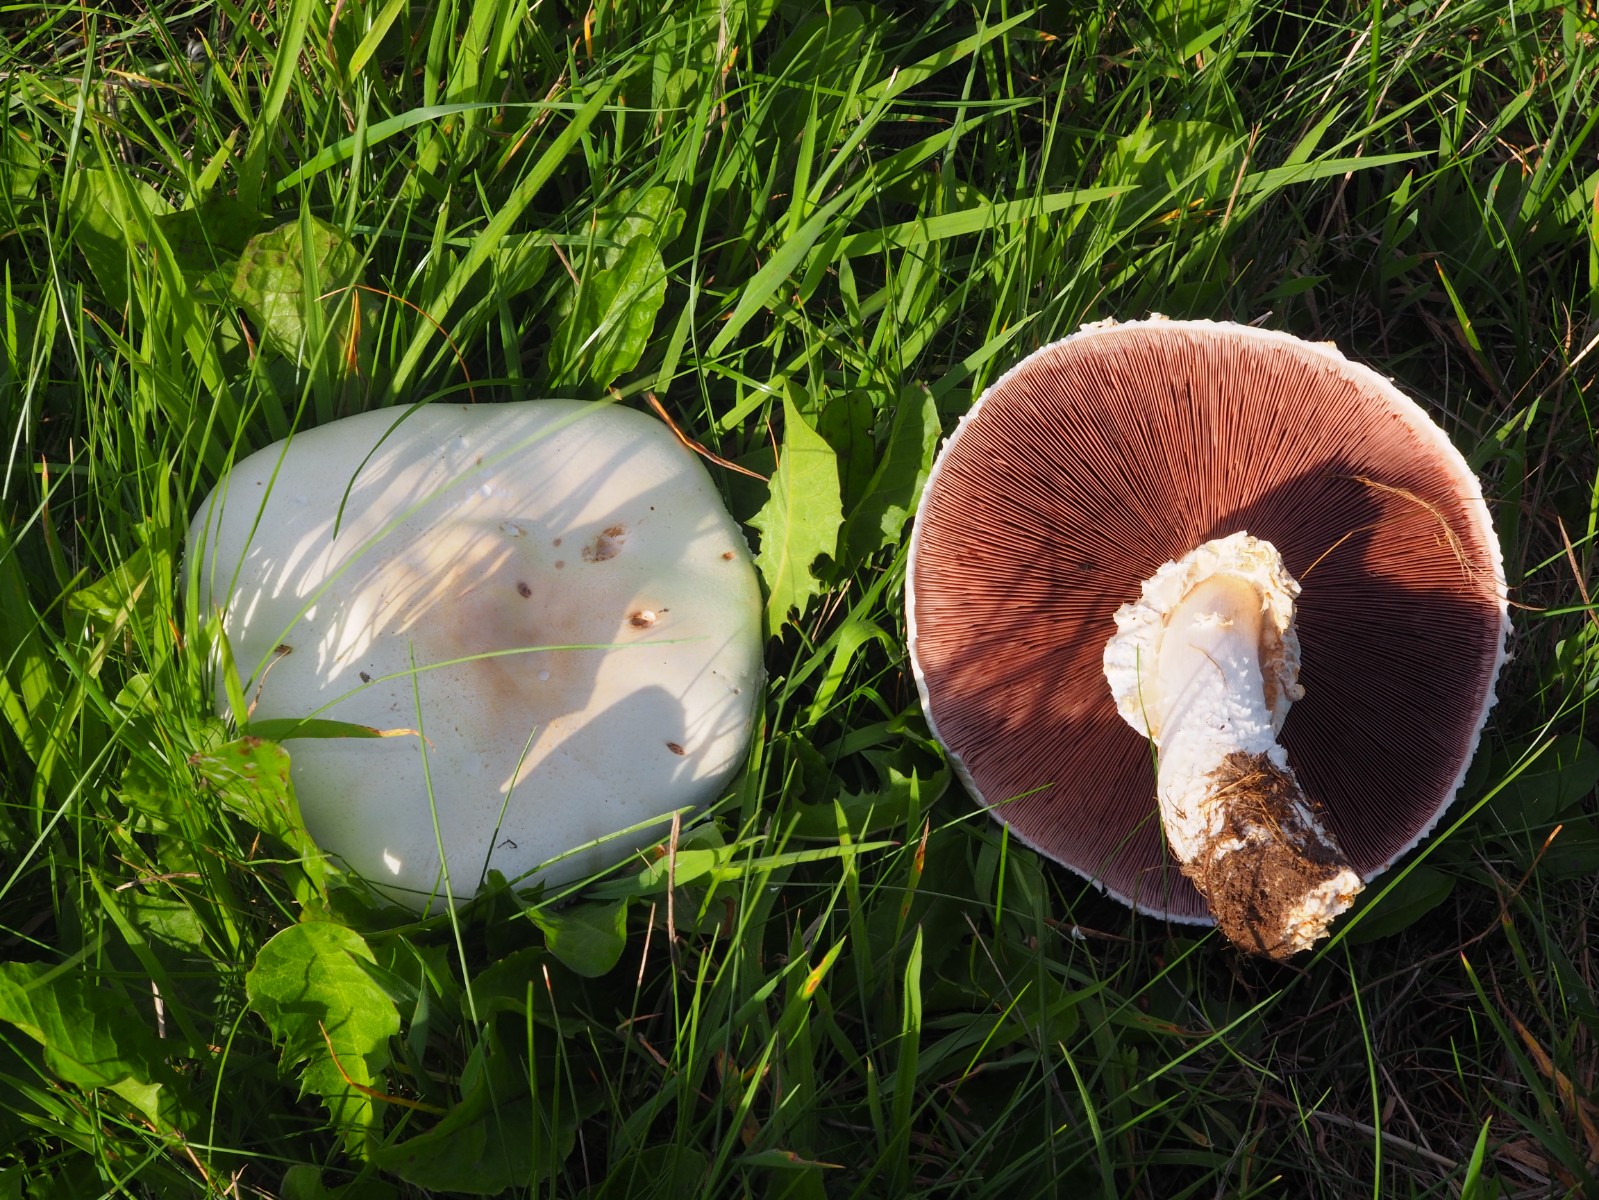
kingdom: Fungi
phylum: Basidiomycota
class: Agaricomycetes
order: Agaricales
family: Agaricaceae
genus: Agaricus
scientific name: Agaricus arvensis
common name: ager-champignon
